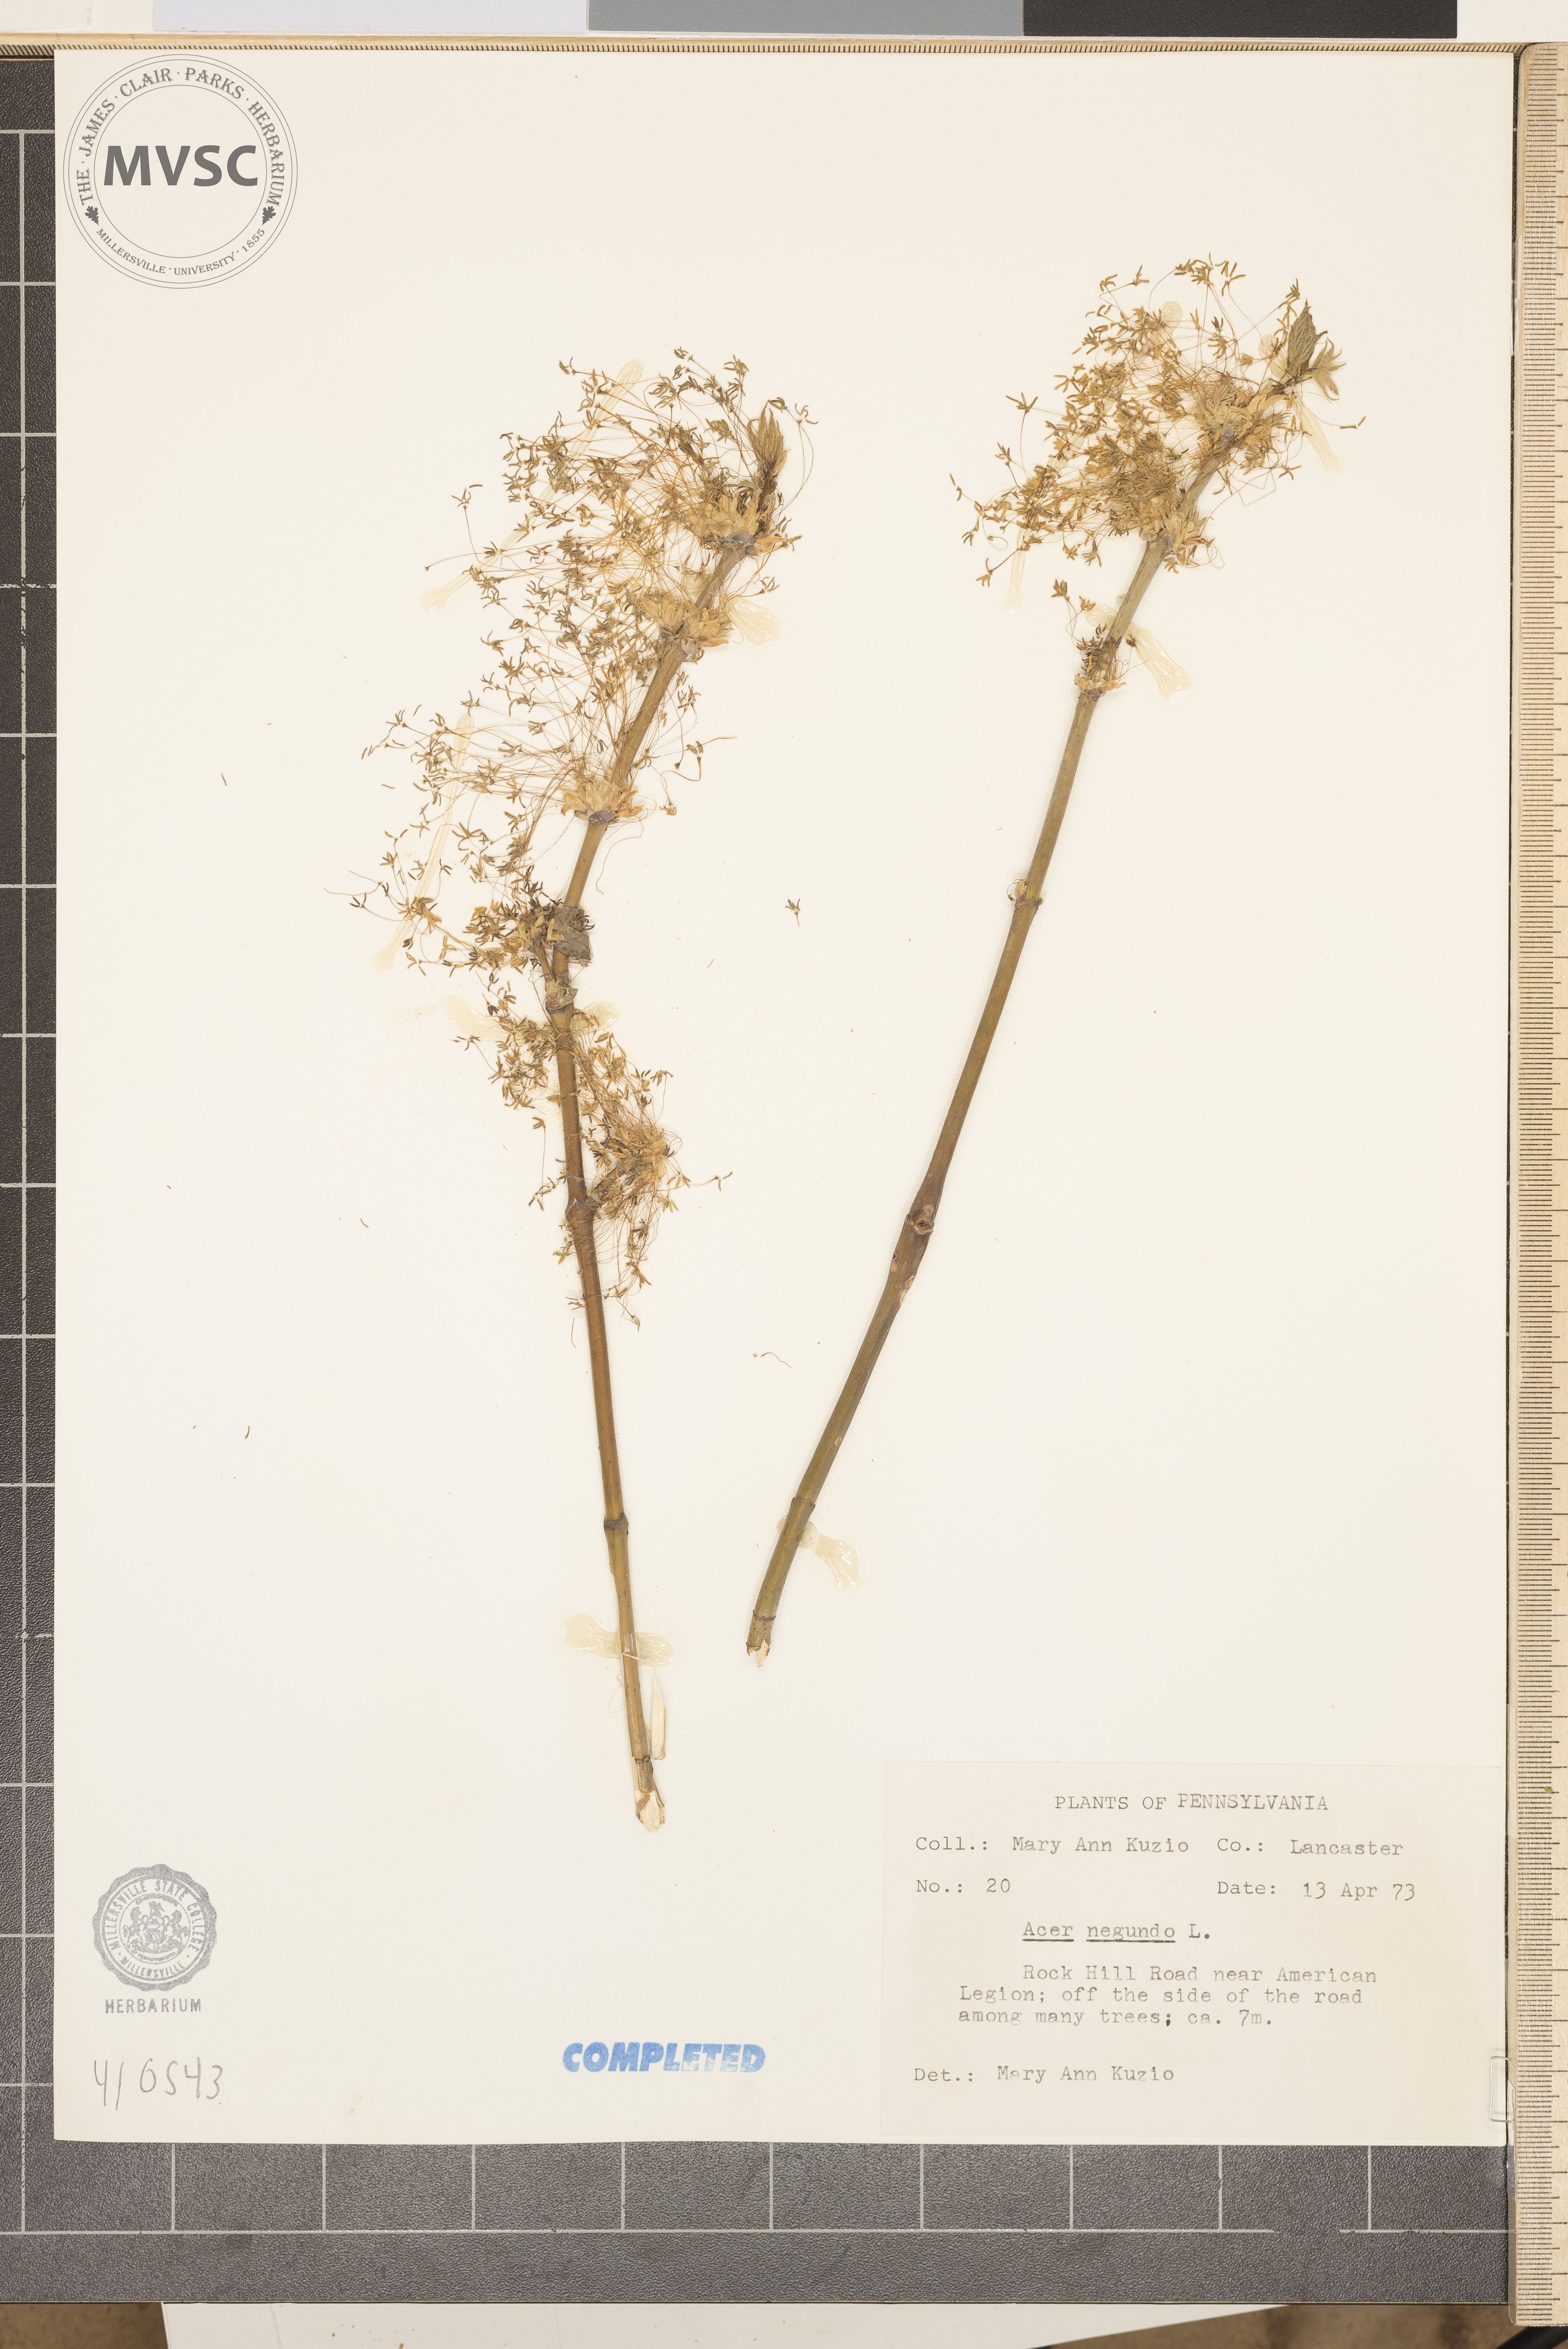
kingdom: Plantae
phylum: Tracheophyta
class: Magnoliopsida
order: Sapindales
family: Sapindaceae
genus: Acer
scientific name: Acer negundo
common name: Ashleaf maple
